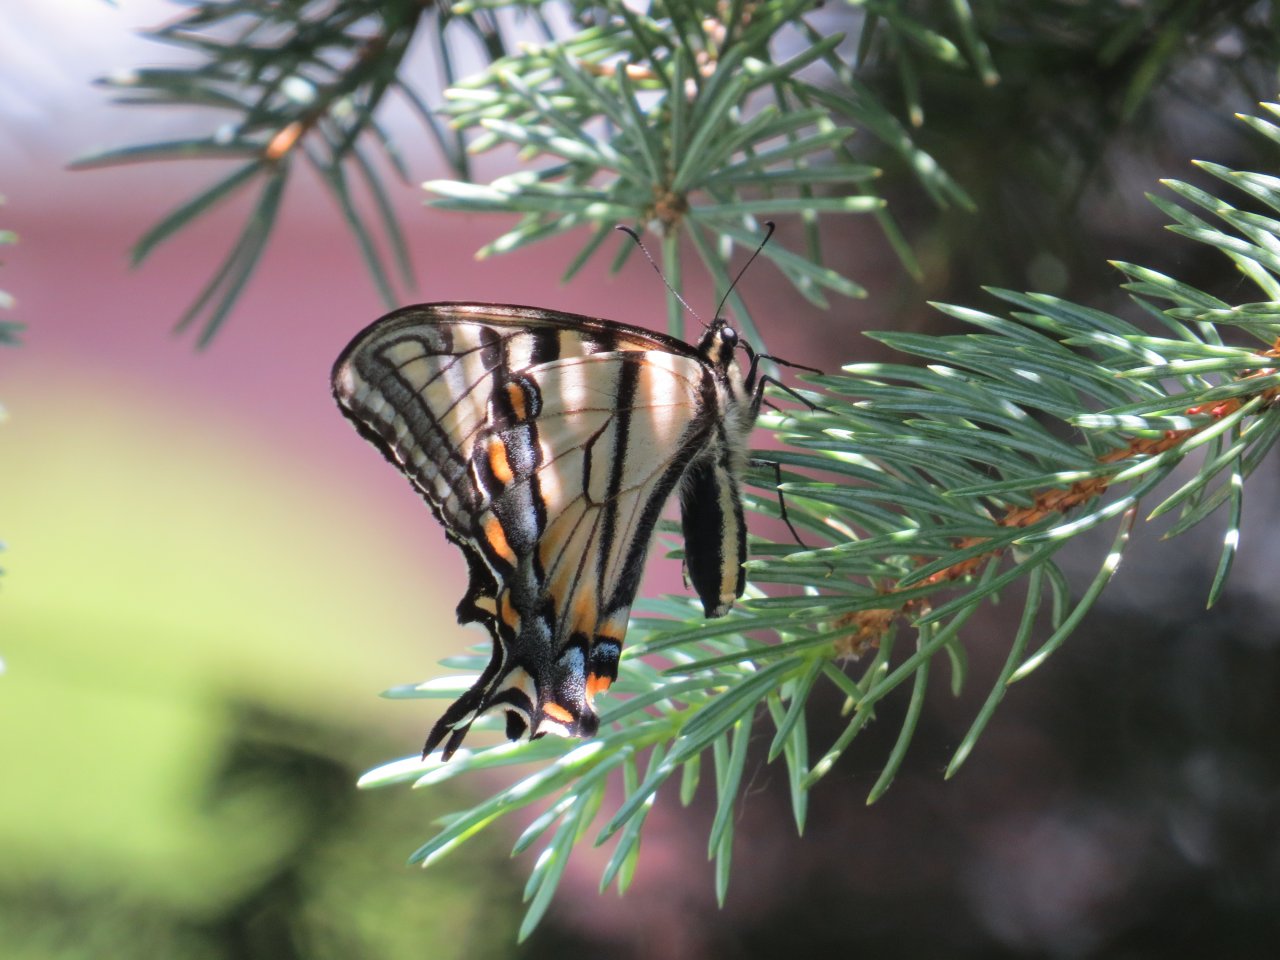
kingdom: Animalia
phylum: Arthropoda
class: Insecta
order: Lepidoptera
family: Papilionidae
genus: Pterourus
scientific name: Pterourus canadensis
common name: Canadian Tiger Swallowtail
